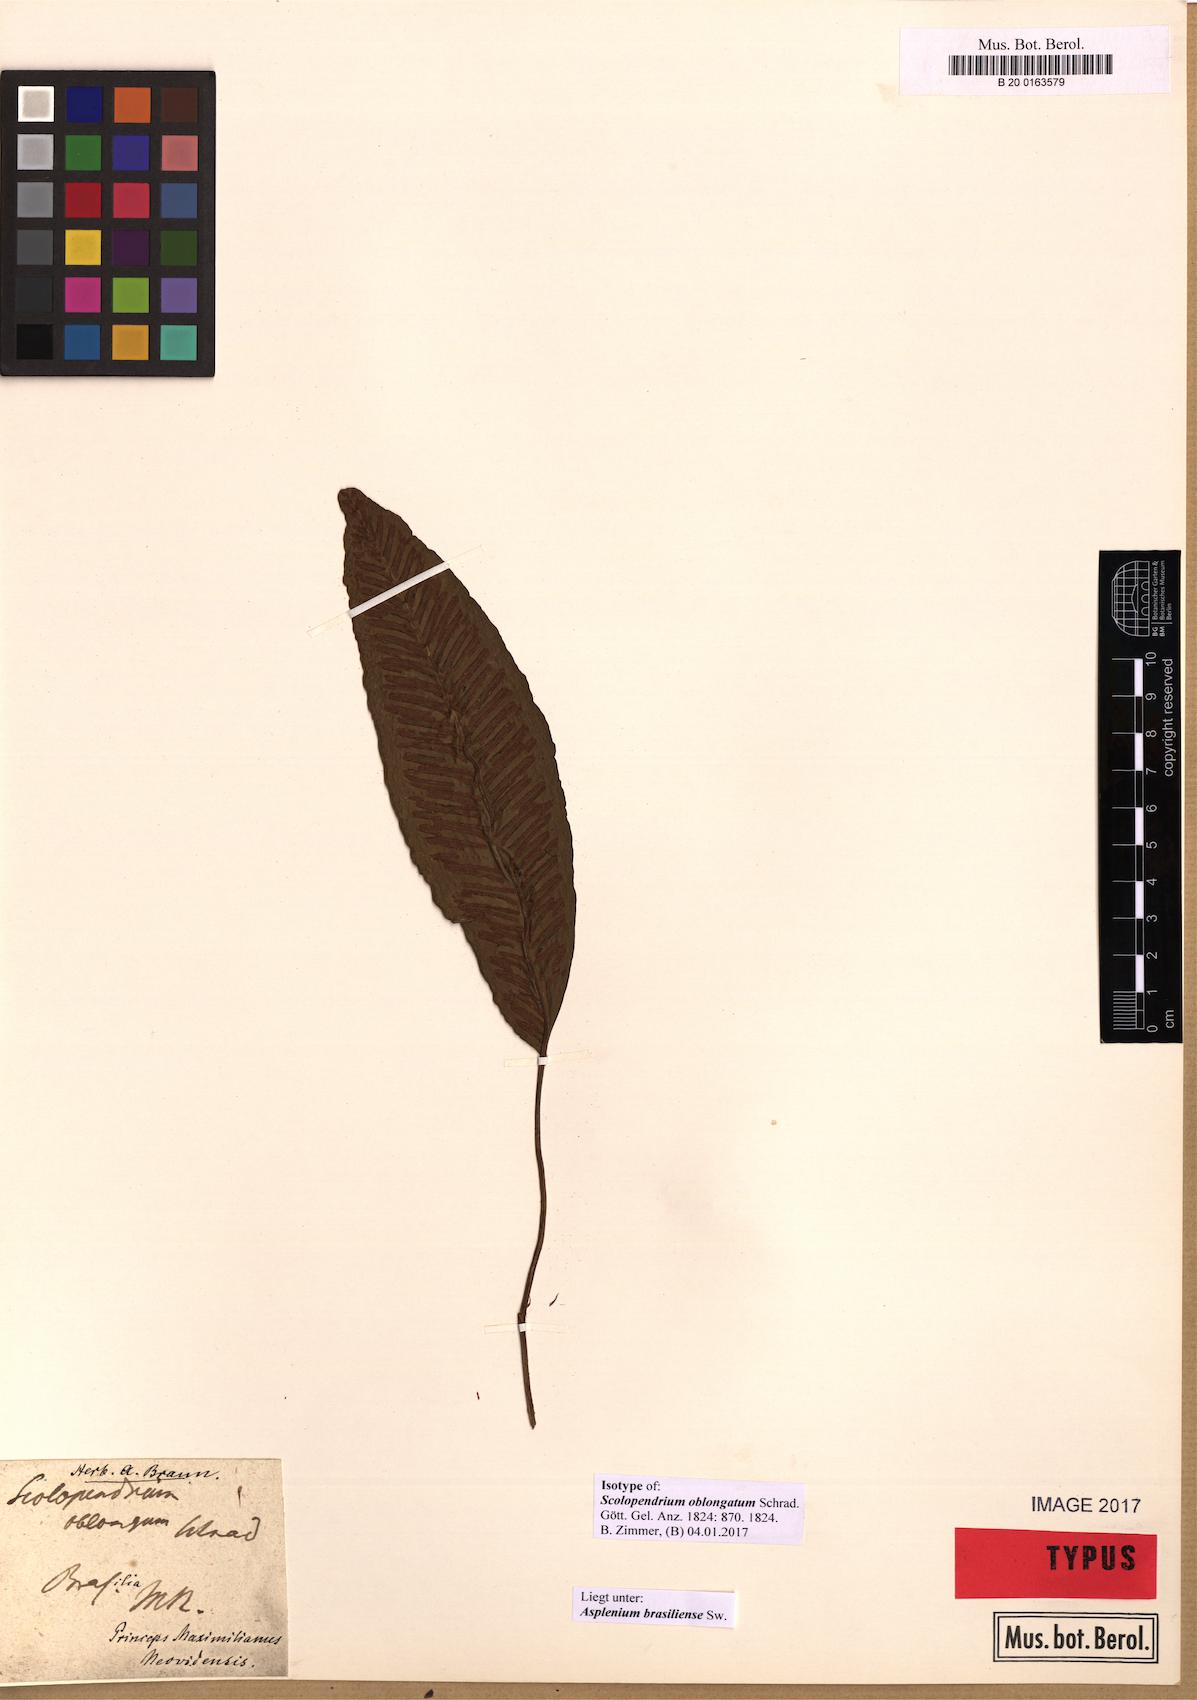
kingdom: Plantae
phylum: Tracheophyta
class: Polypodiopsida
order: Polypodiales
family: Aspleniaceae
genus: Asplenium
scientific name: Asplenium brasiliense
